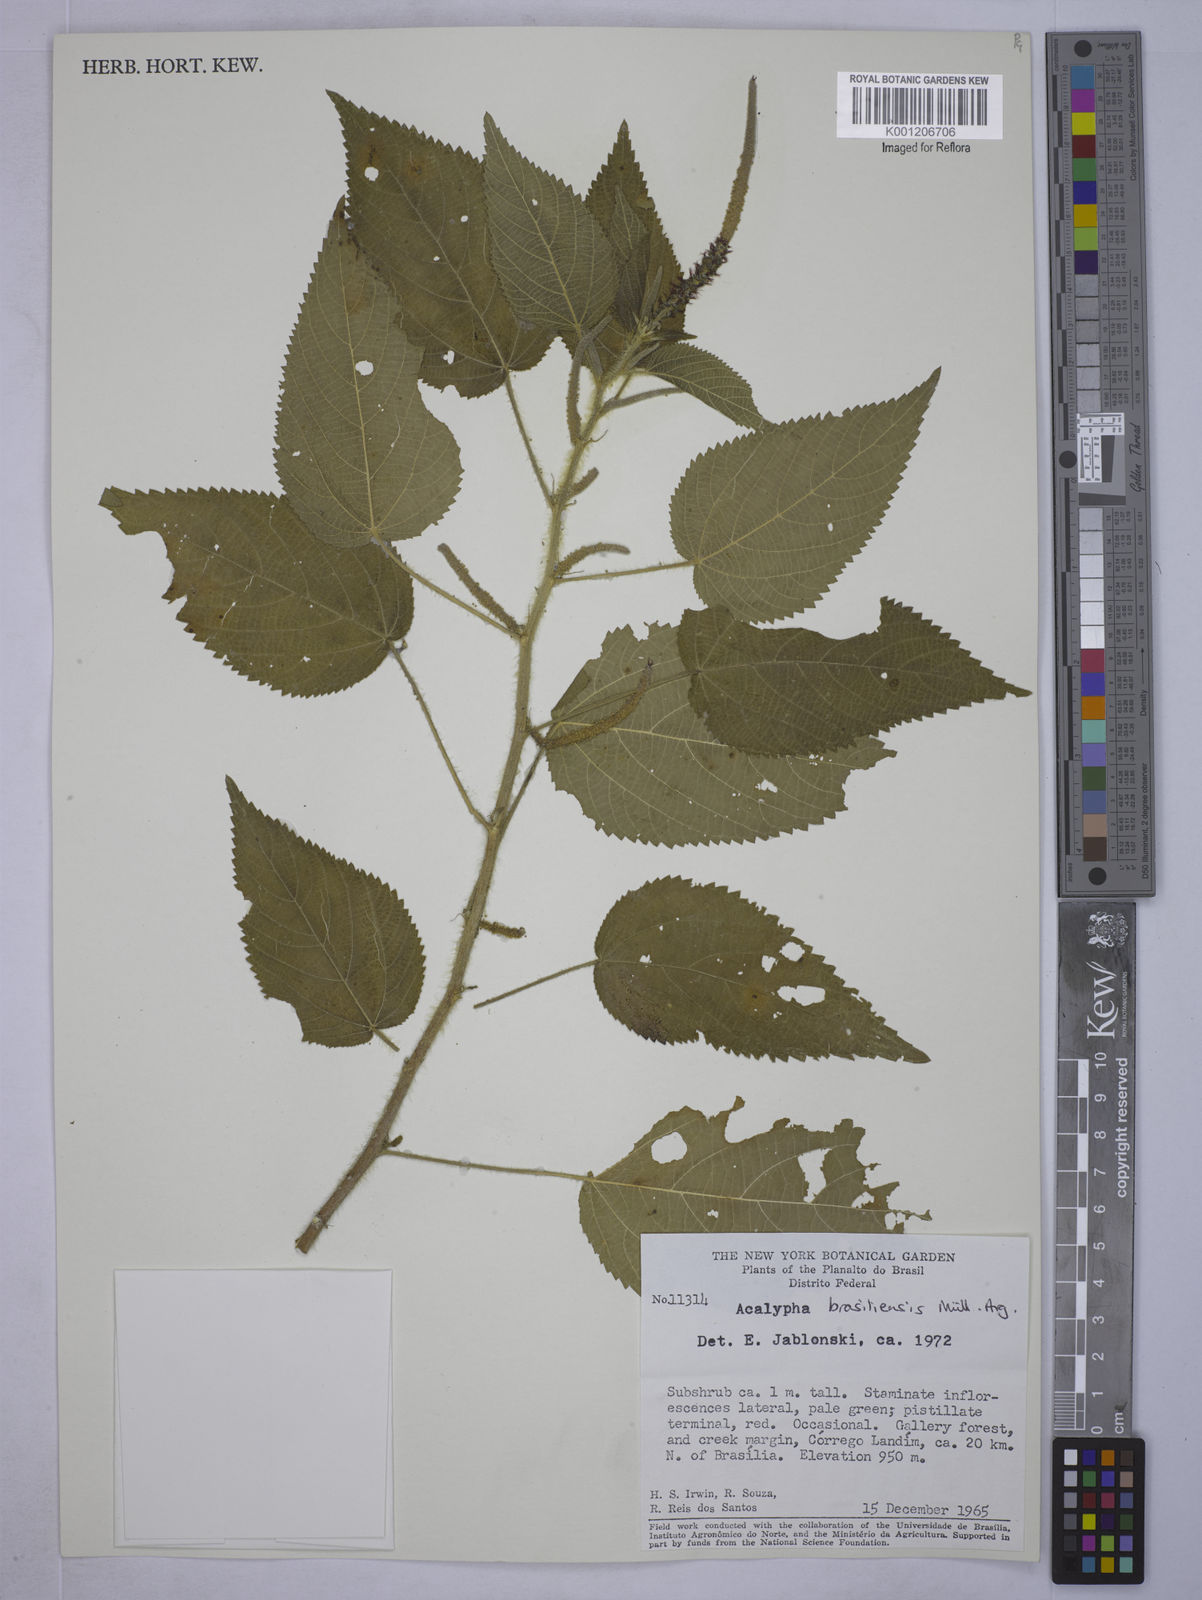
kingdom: Plantae
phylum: Tracheophyta
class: Magnoliopsida
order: Malpighiales
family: Euphorbiaceae
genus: Acalypha
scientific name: Acalypha
